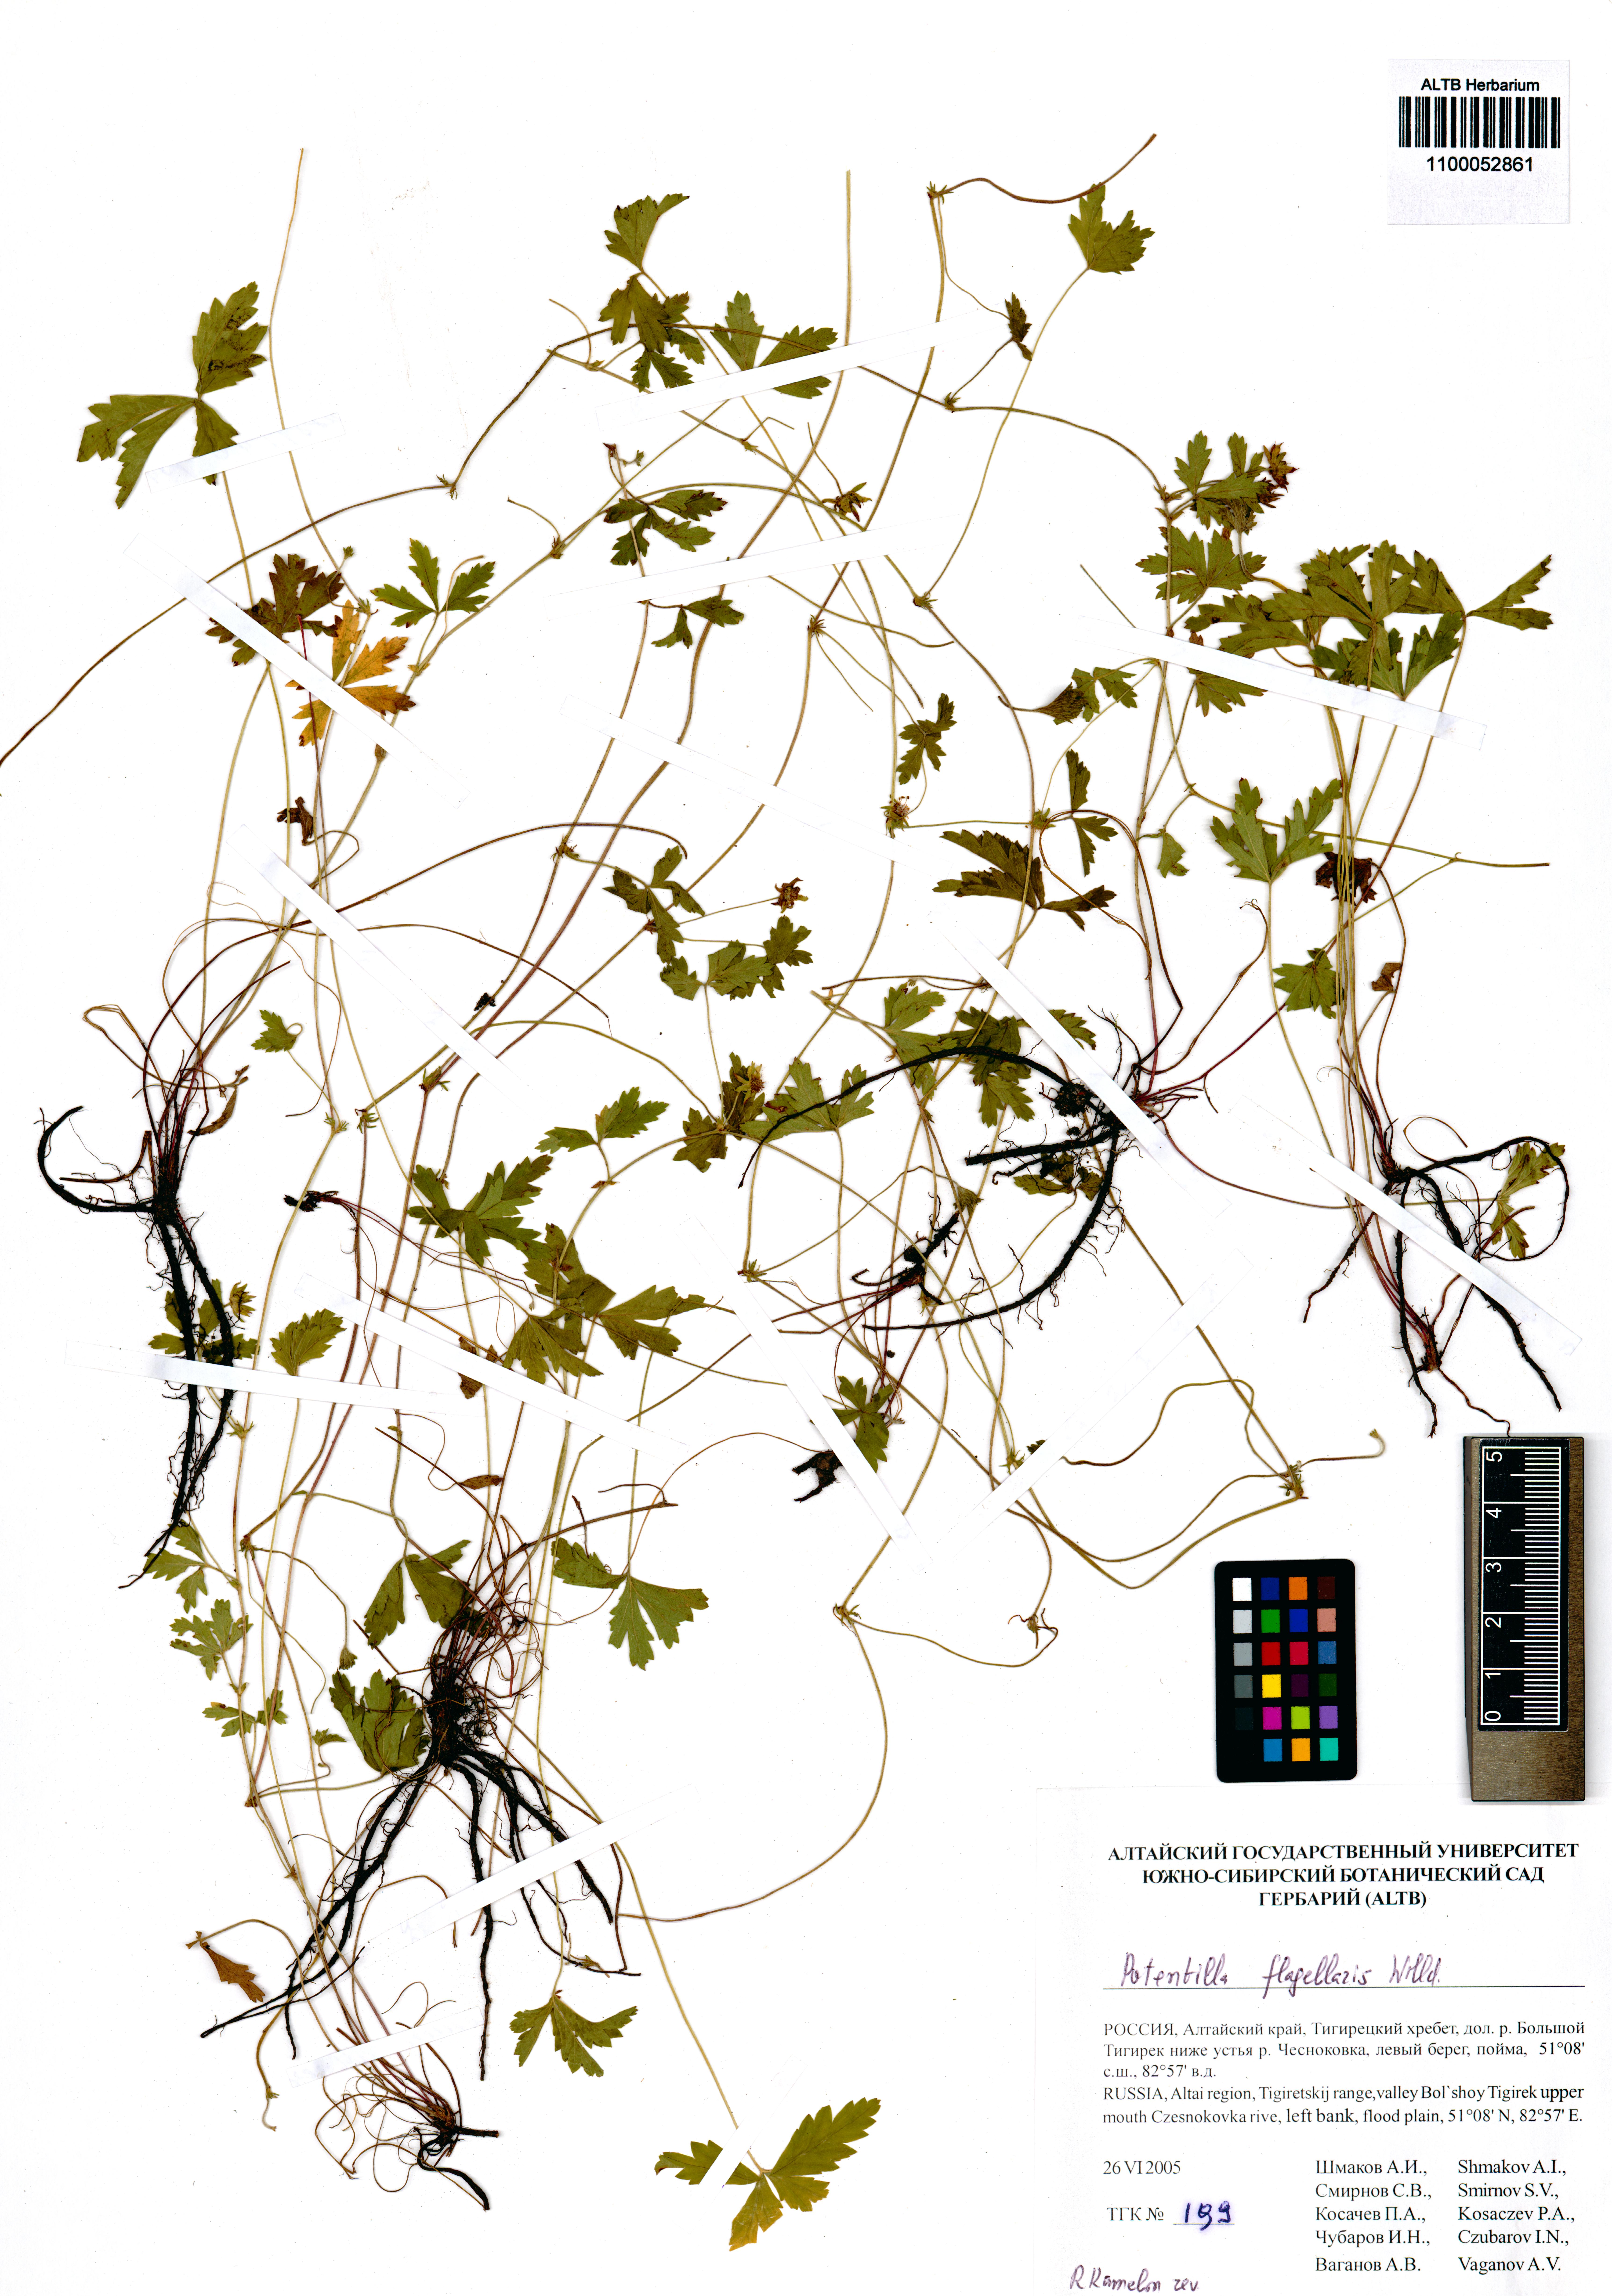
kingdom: Plantae
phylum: Tracheophyta
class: Magnoliopsida
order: Rosales
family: Rosaceae
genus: Potentilla
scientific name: Potentilla flagellaris
